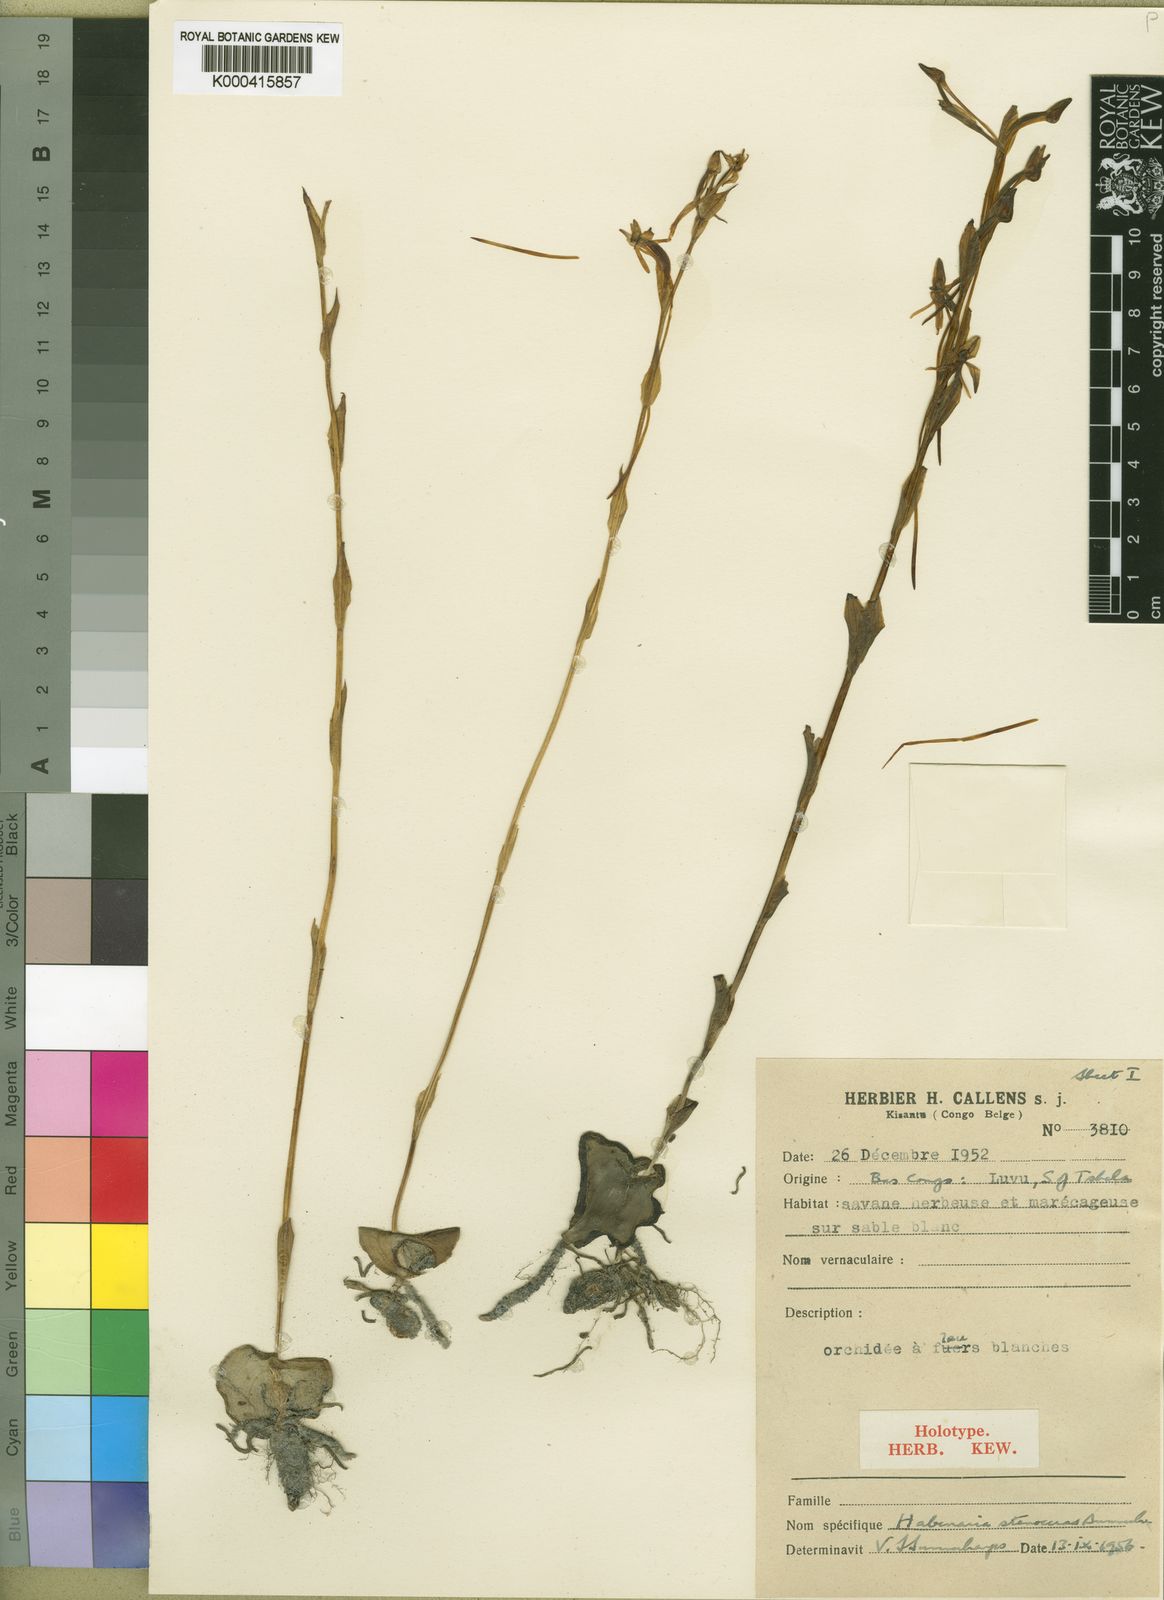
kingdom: Plantae
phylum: Tracheophyta
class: Liliopsida
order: Asparagales
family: Orchidaceae
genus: Habenaria
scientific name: Habenaria stenoceras
